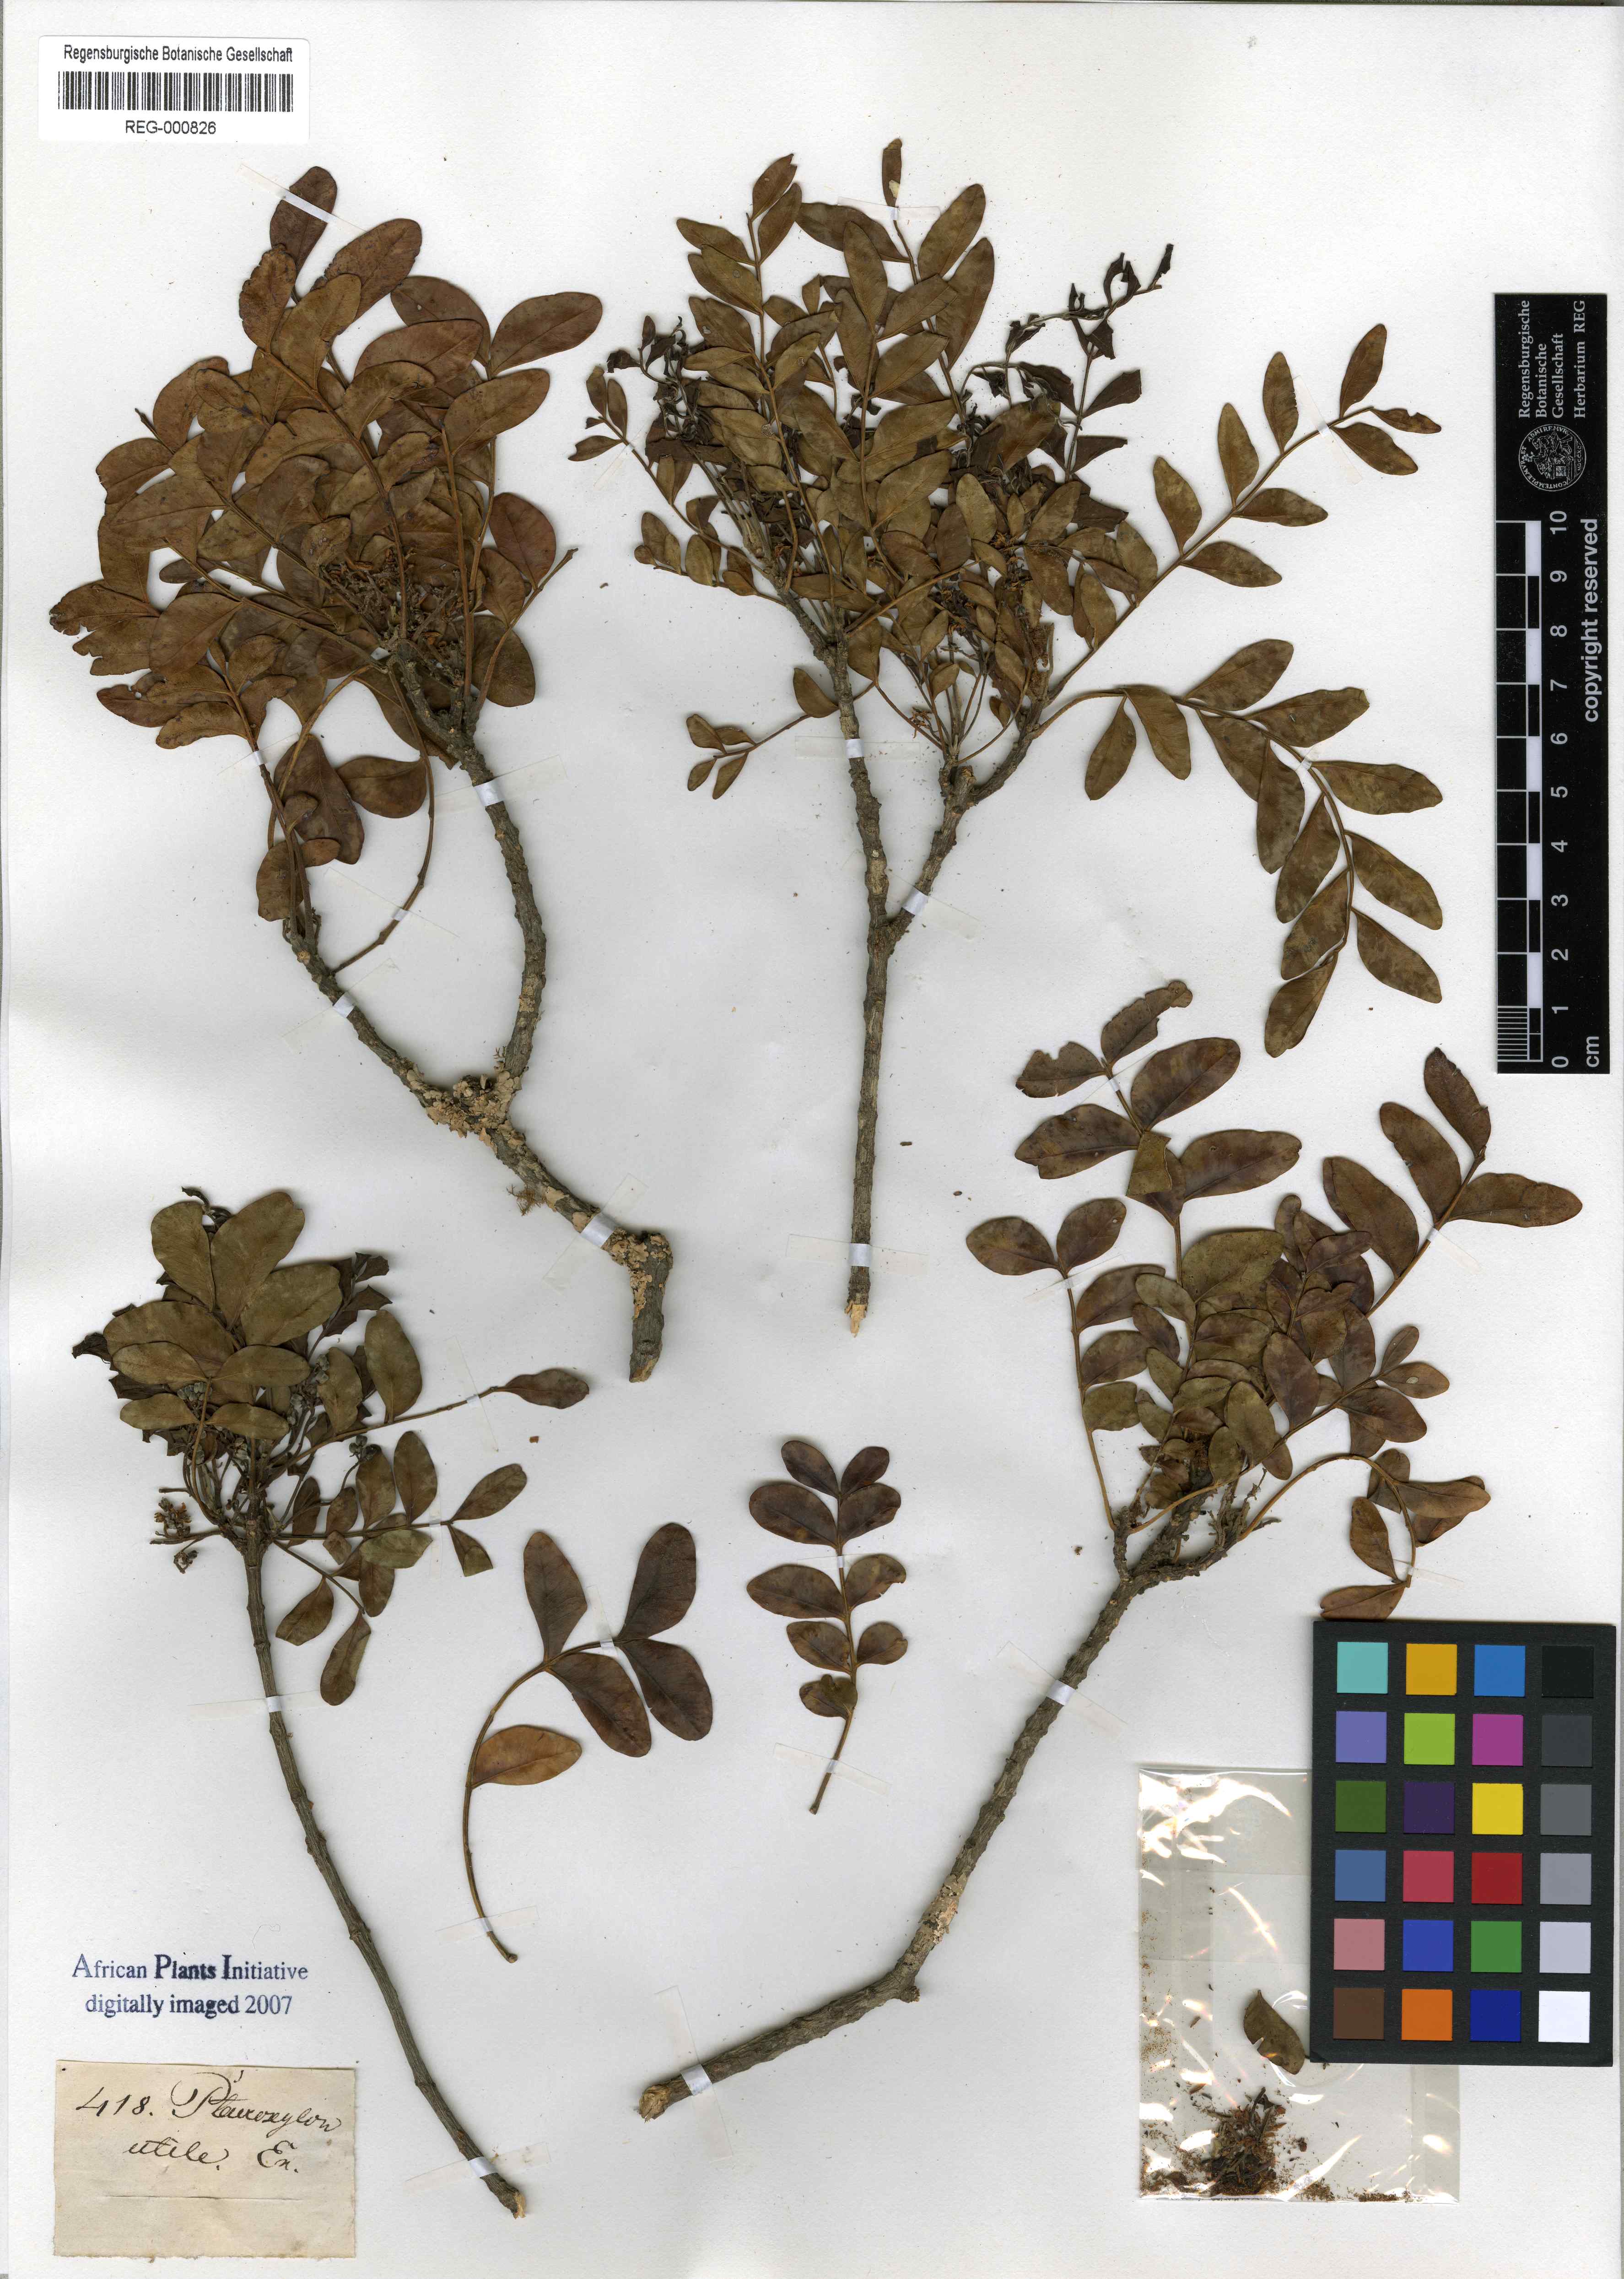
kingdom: Plantae
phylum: Tracheophyta
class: Magnoliopsida
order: Sapindales
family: Rutaceae
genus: Ptaeroxylon
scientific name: Ptaeroxylon obliquum
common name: Sneezewood
